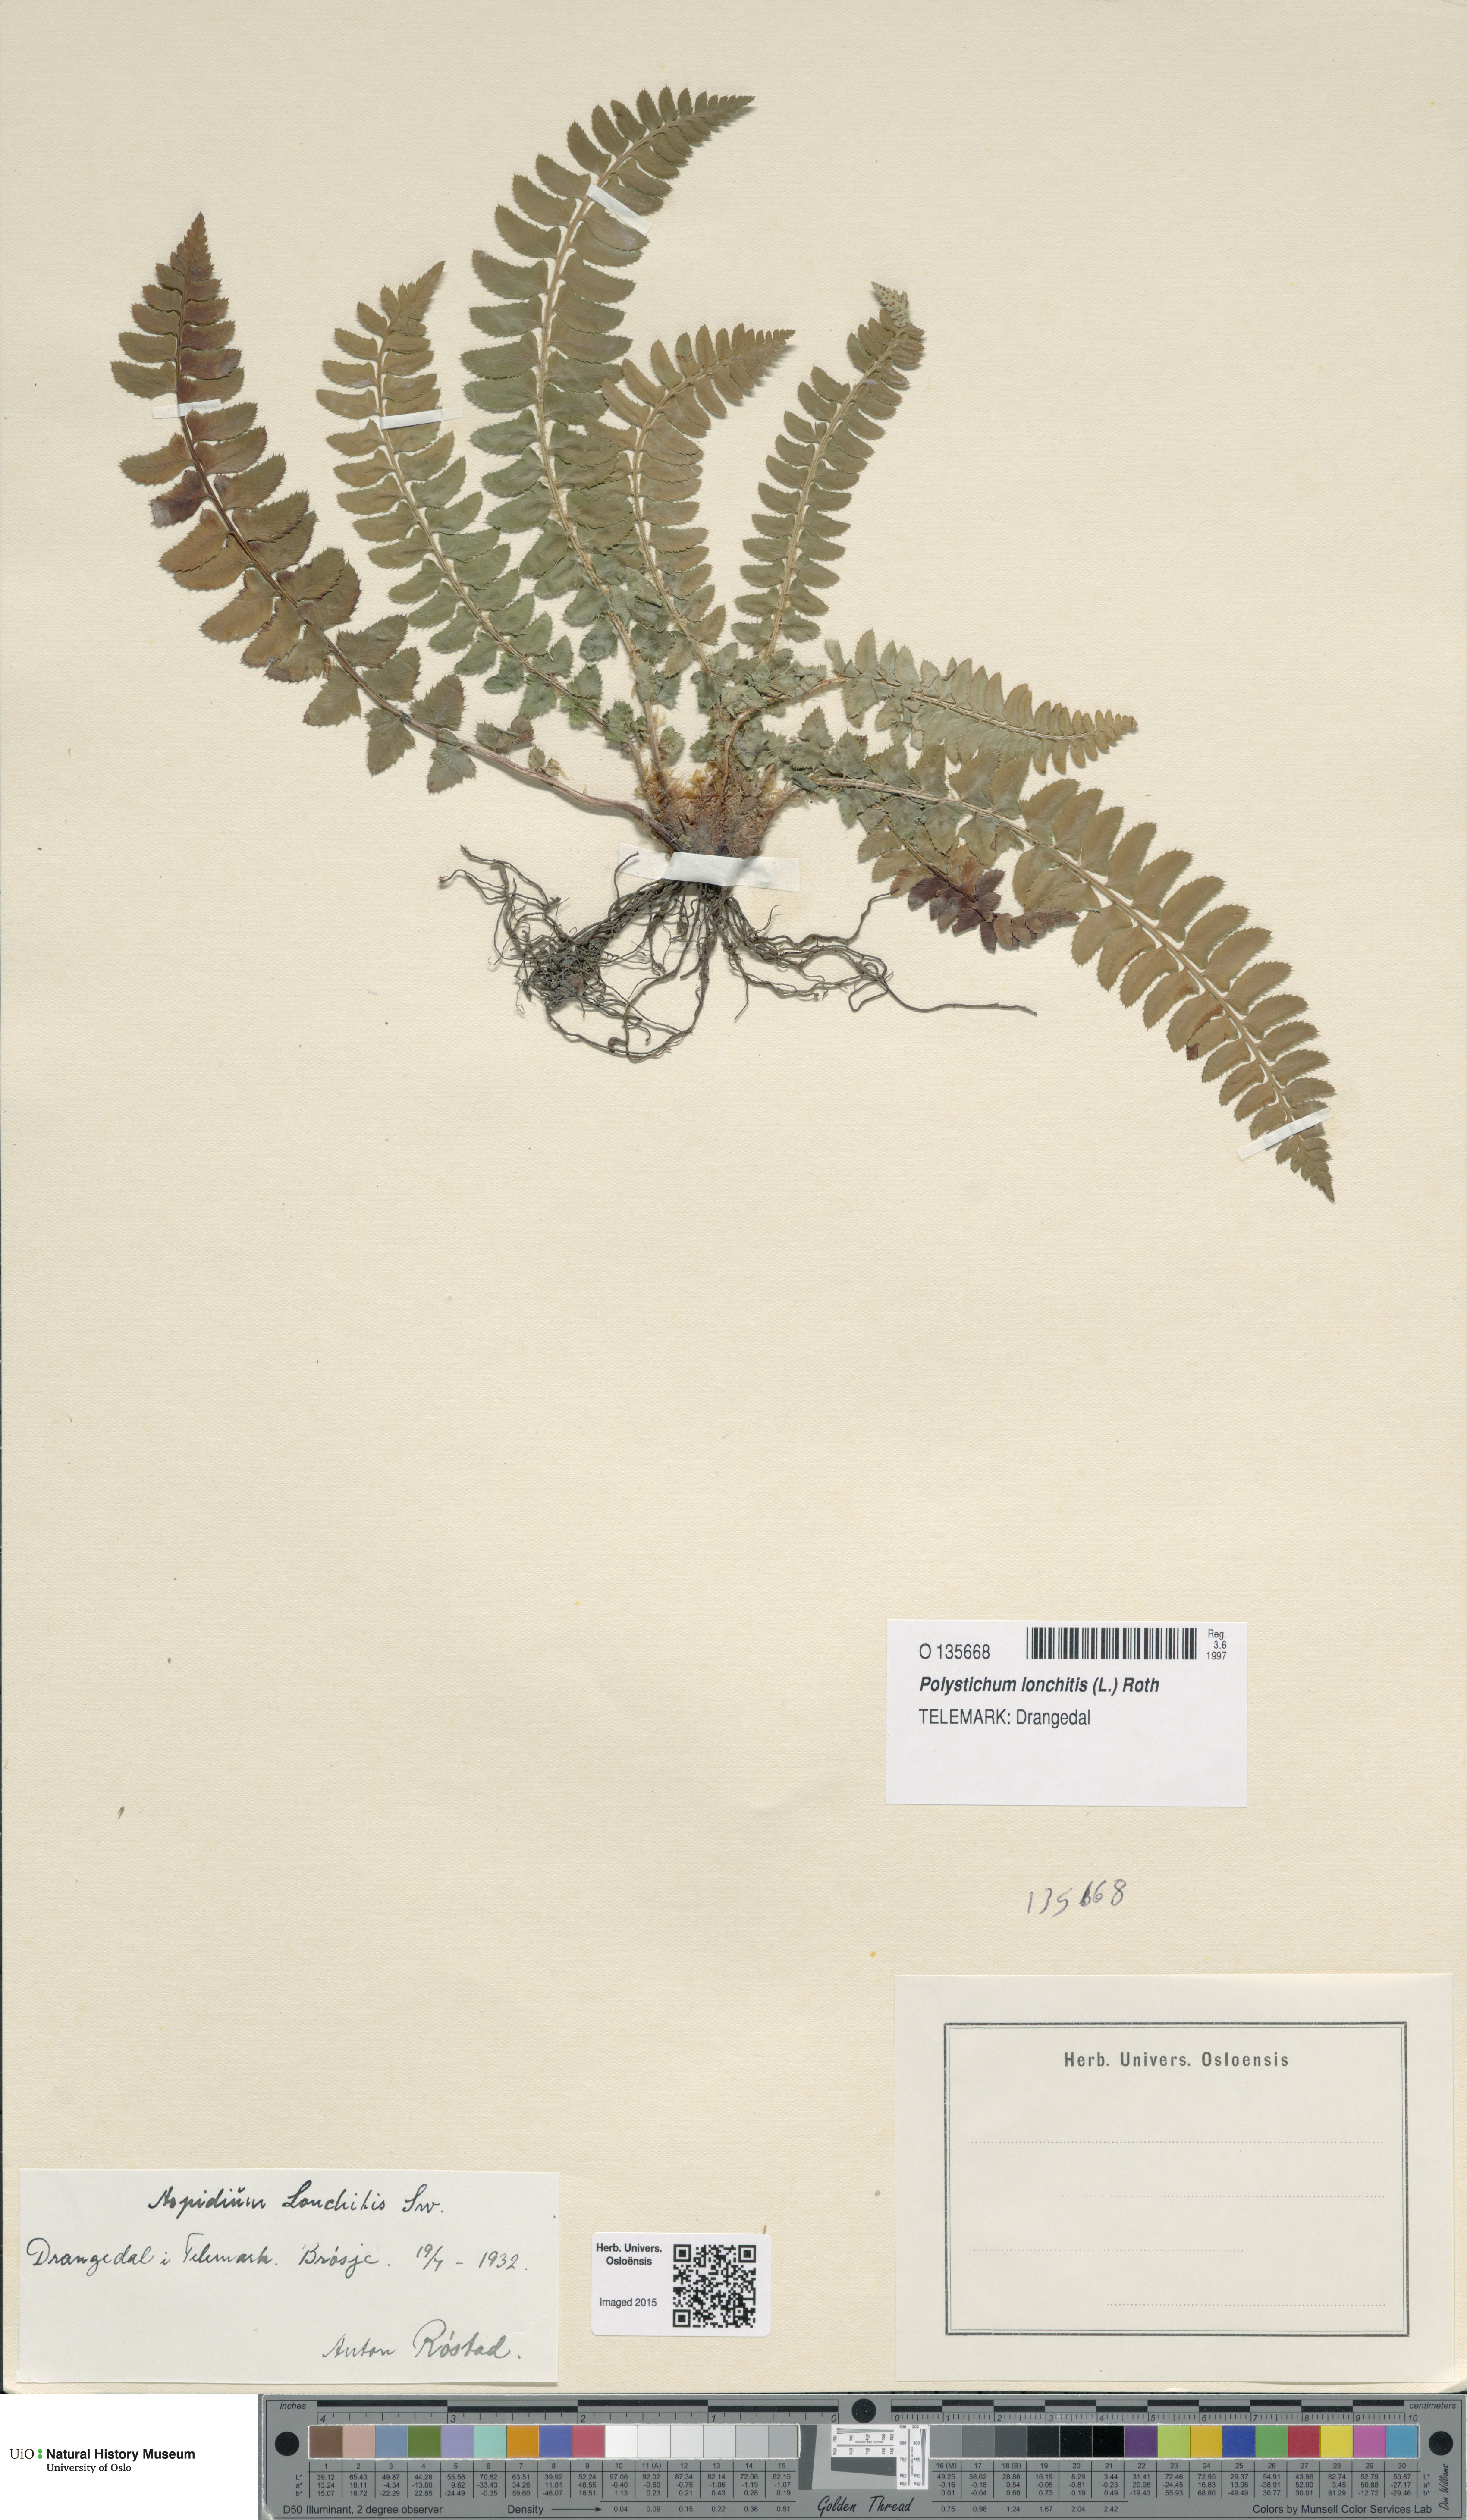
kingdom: Plantae
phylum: Tracheophyta
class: Polypodiopsida
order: Polypodiales
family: Dryopteridaceae
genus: Polystichum
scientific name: Polystichum lonchitis
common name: Holly fern
